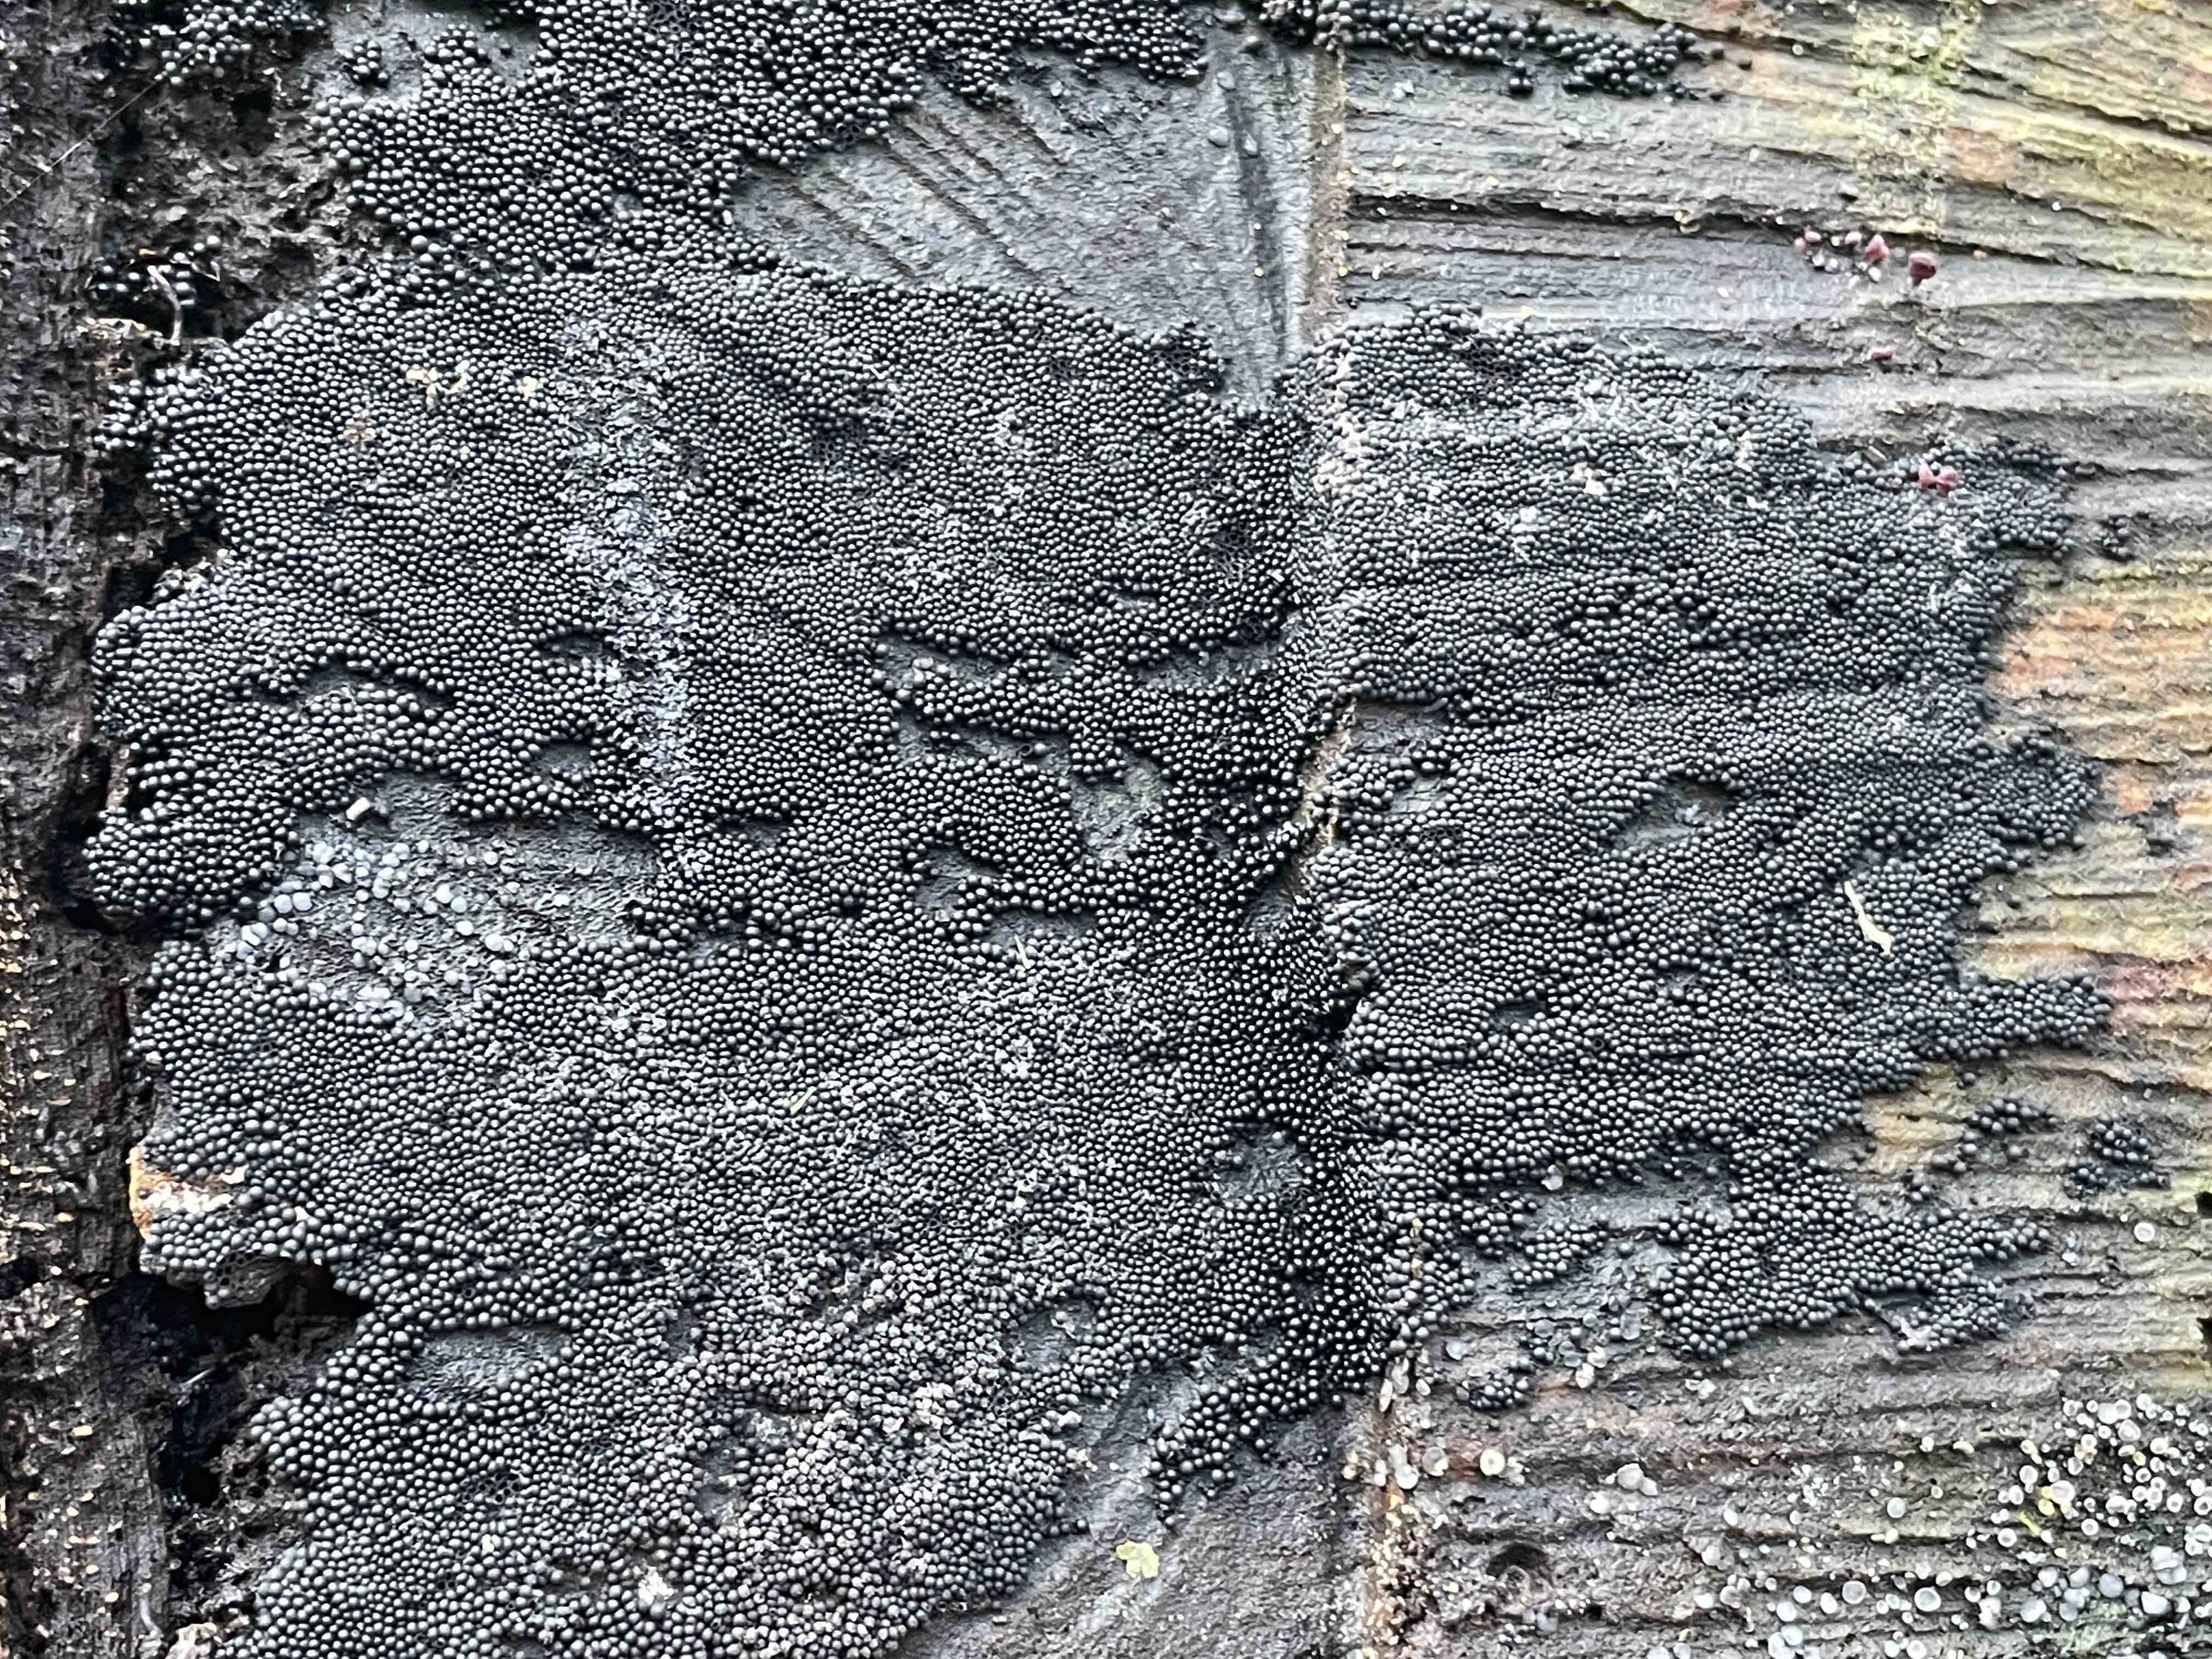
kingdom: Fungi
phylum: Ascomycota
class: Sordariomycetes
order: Sordariales
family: Helminthosphaeriaceae
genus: Ruzenia
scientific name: Ruzenia spermoides
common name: glat børstekerne
